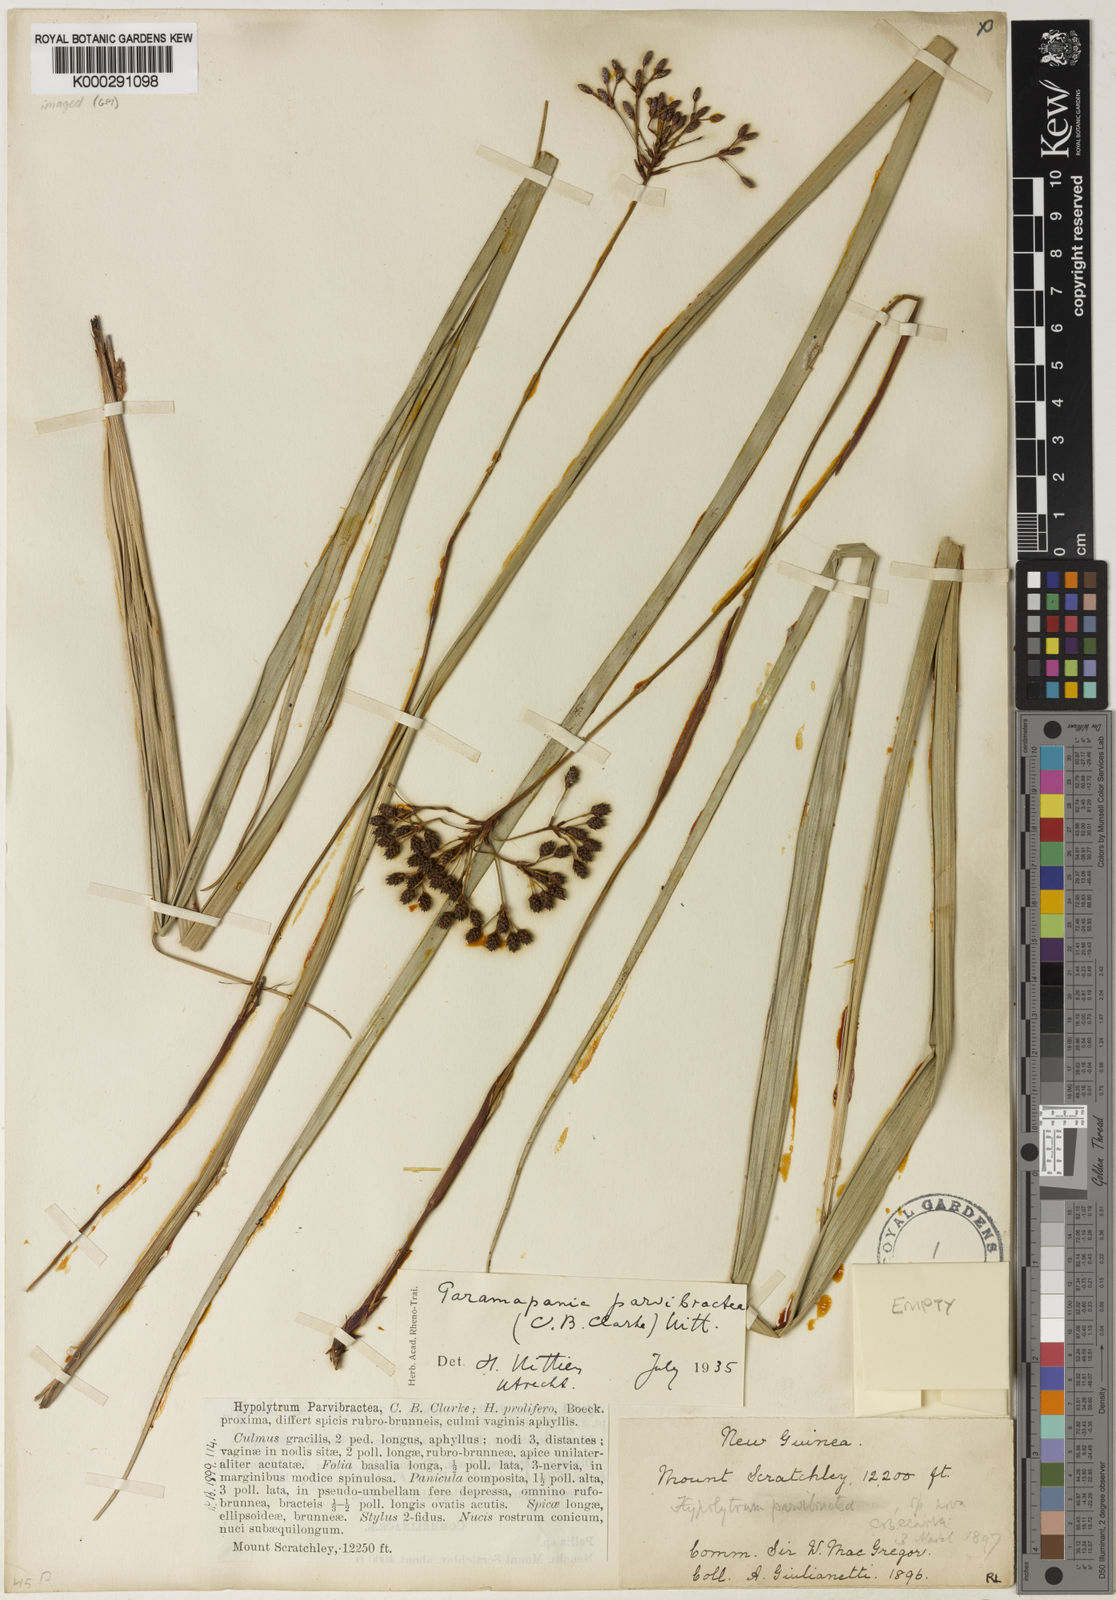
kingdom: Plantae
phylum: Tracheophyta
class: Liliopsida
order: Poales
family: Cyperaceae
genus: Paramapania
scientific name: Paramapania
